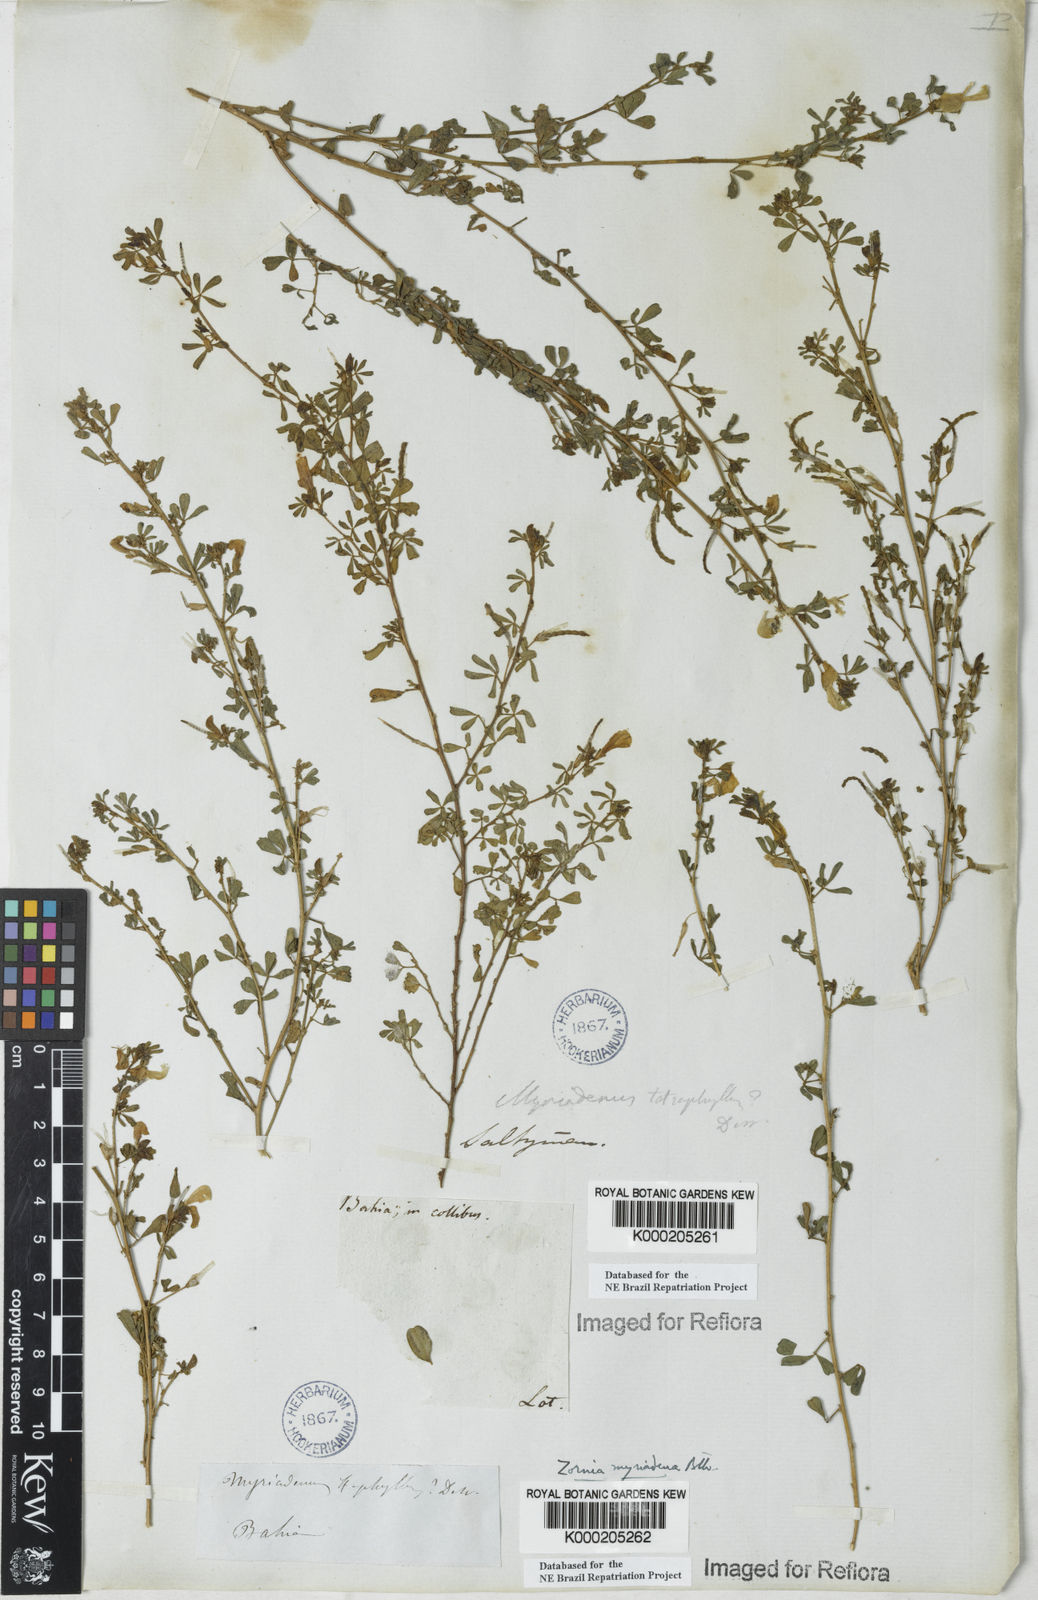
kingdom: Plantae
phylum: Tracheophyta
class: Magnoliopsida
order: Fabales
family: Fabaceae
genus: Zornia
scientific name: Zornia myriadena
